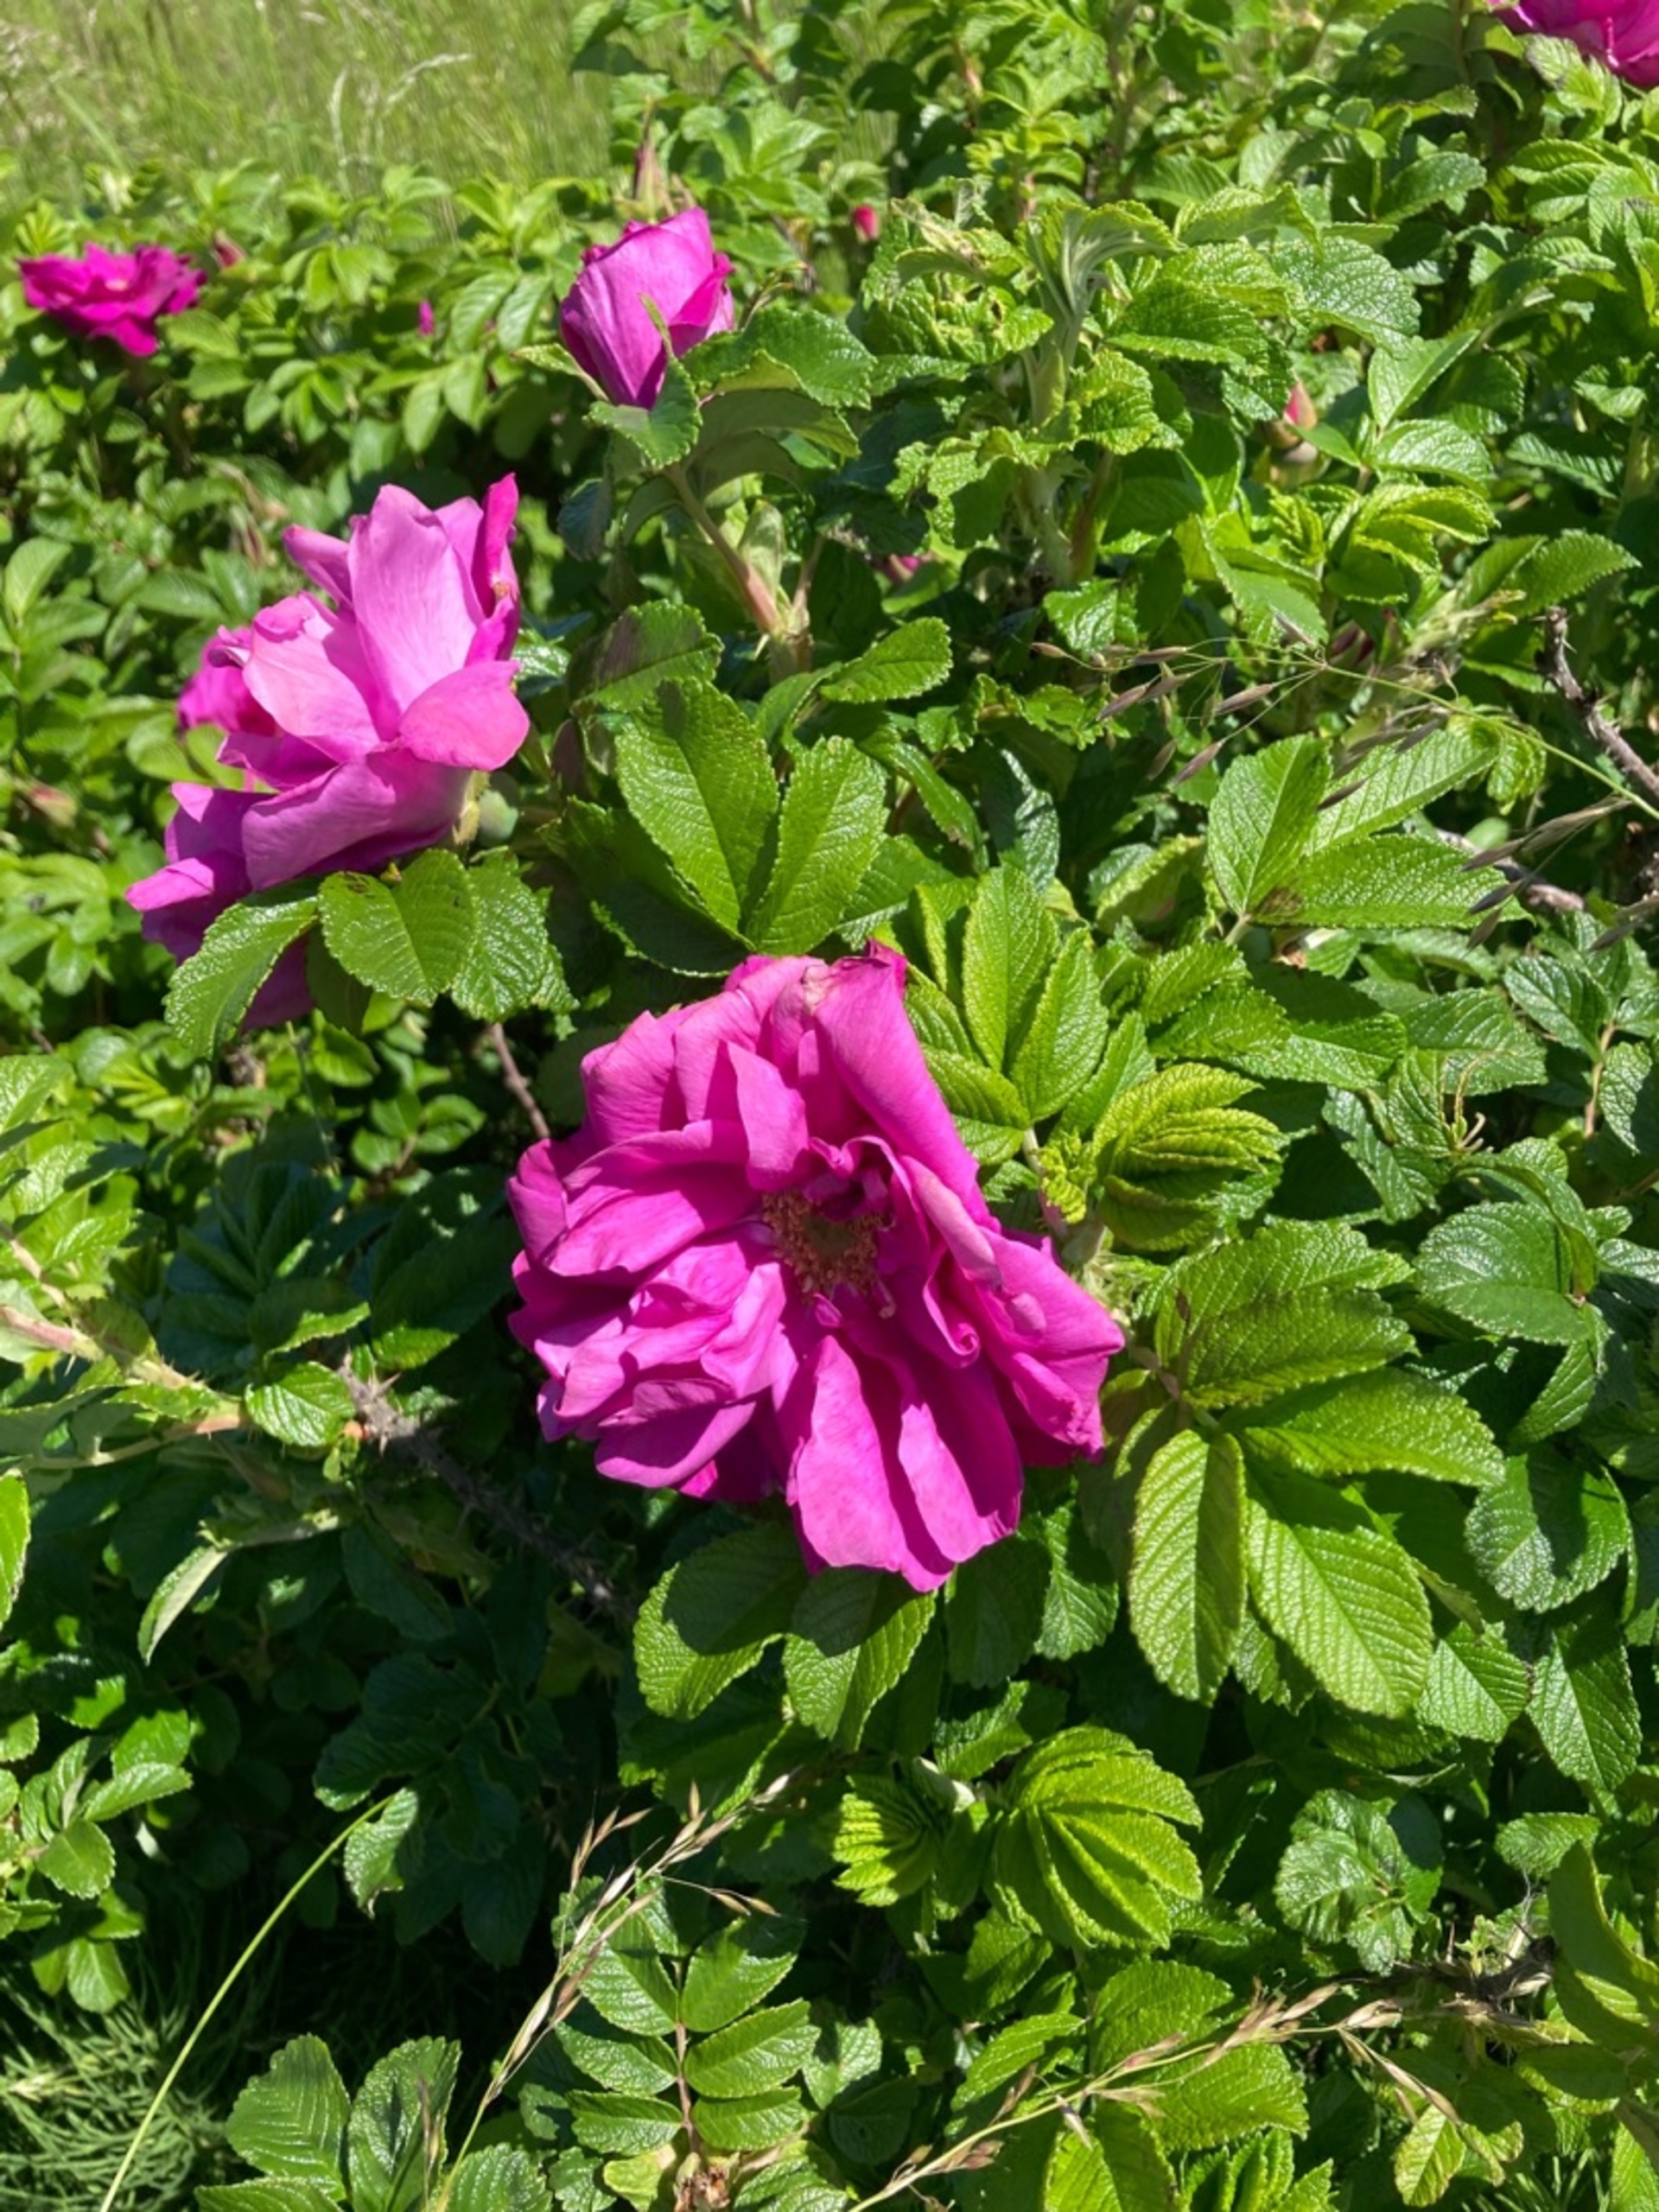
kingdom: Plantae
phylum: Tracheophyta
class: Magnoliopsida
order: Rosales
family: Rosaceae
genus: Rosa
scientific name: Rosa rugosa
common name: Rynket rose
